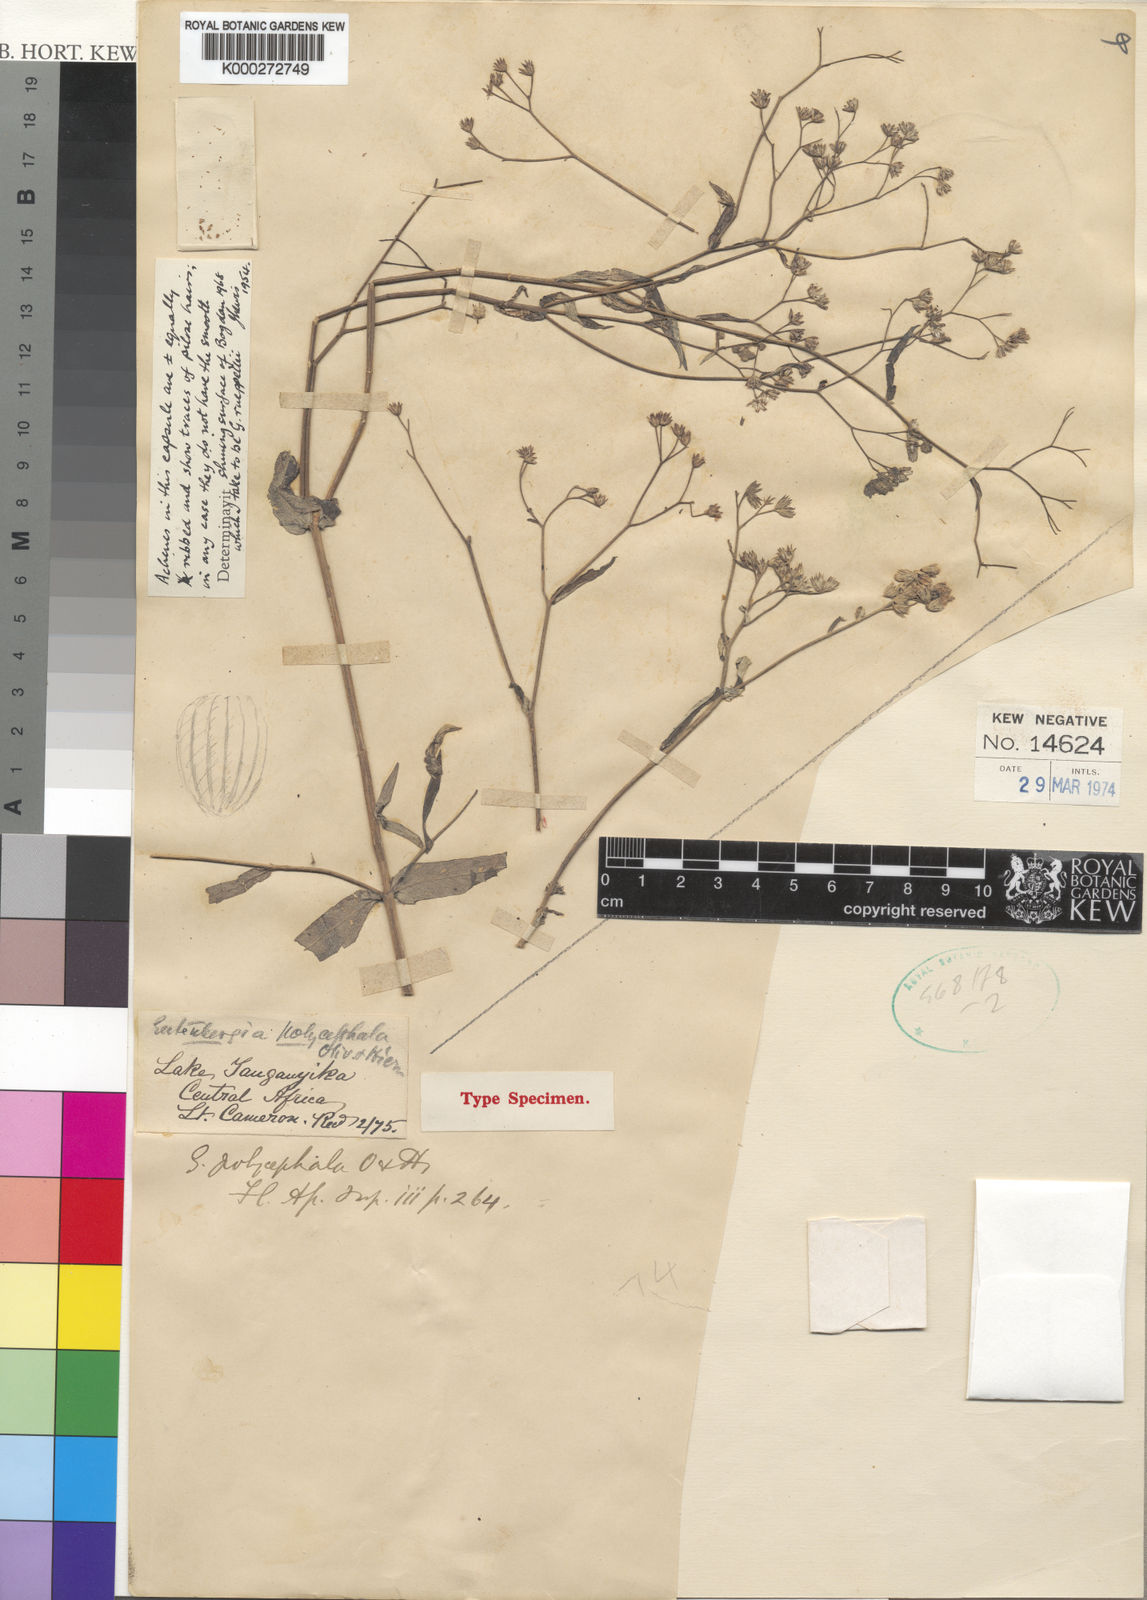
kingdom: Plantae
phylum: Tracheophyta
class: Magnoliopsida
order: Asterales
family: Asteraceae
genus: Gutenbergia
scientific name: Gutenbergia gracilis
